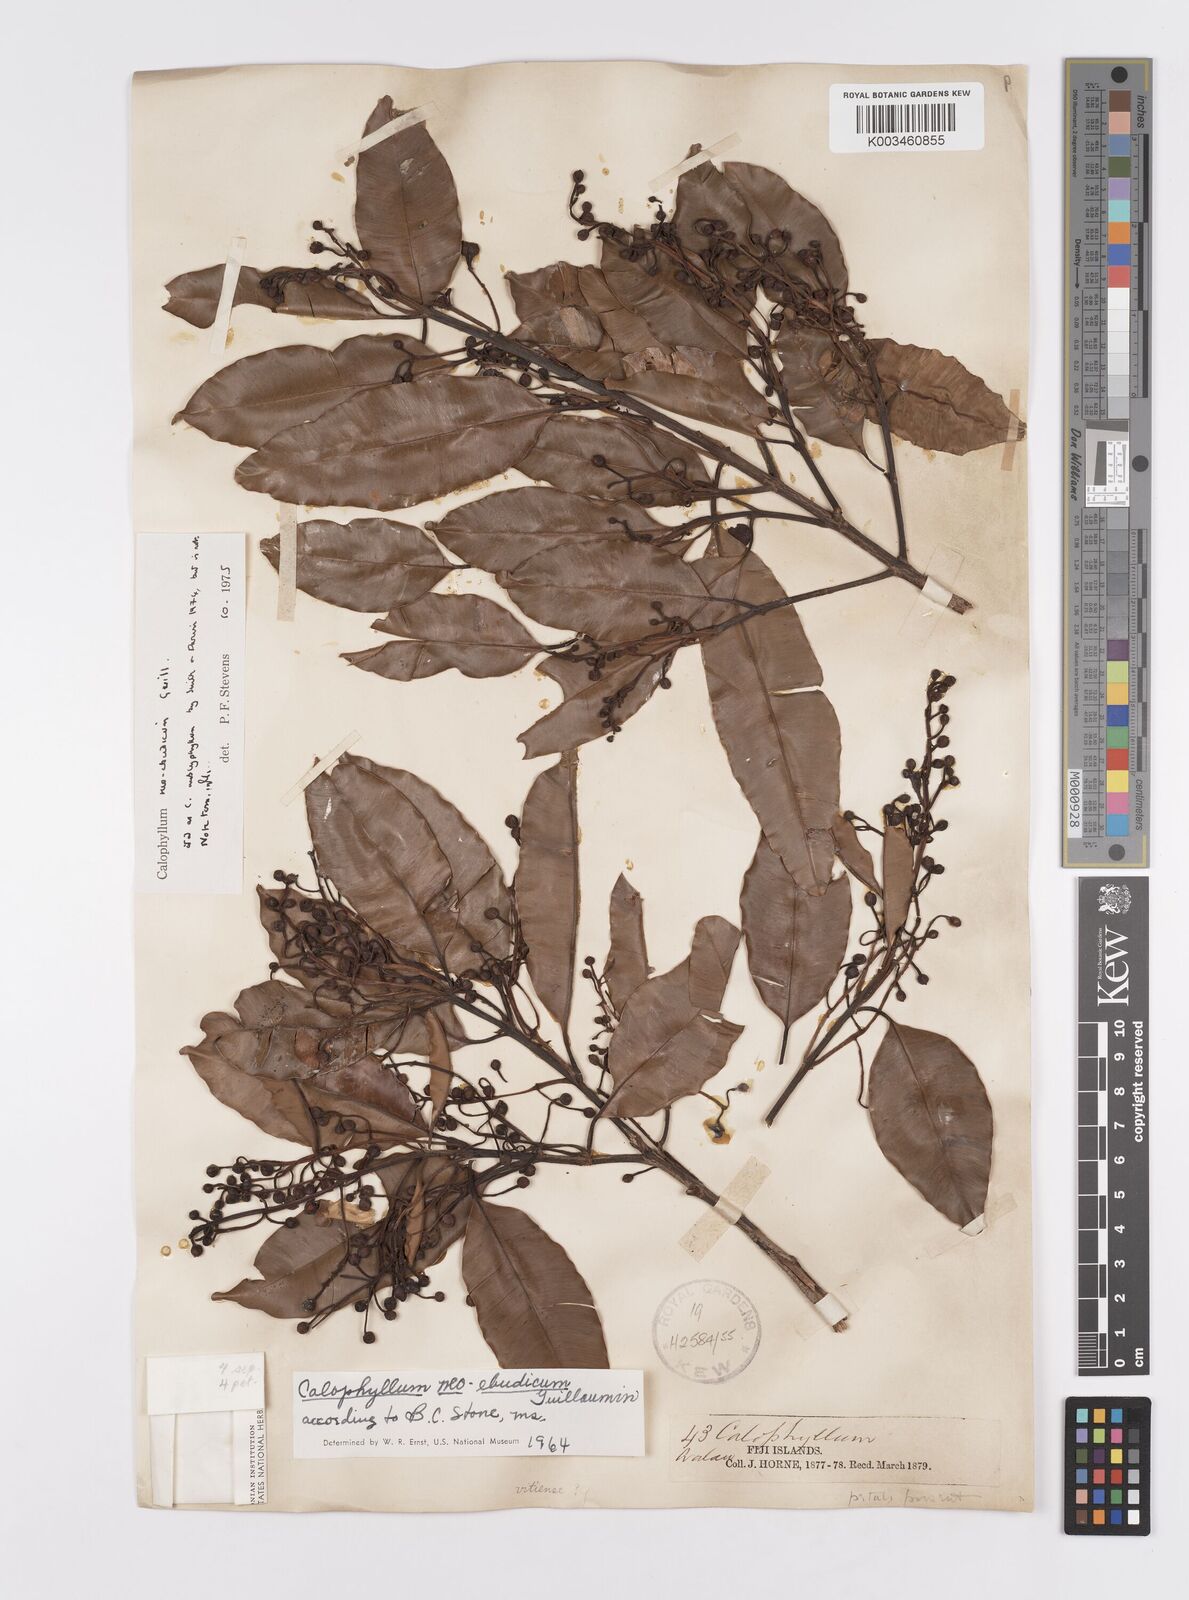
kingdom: Plantae
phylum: Tracheophyta
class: Magnoliopsida
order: Malpighiales
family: Calophyllaceae
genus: Calophyllum
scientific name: Calophyllum neoebudicum
